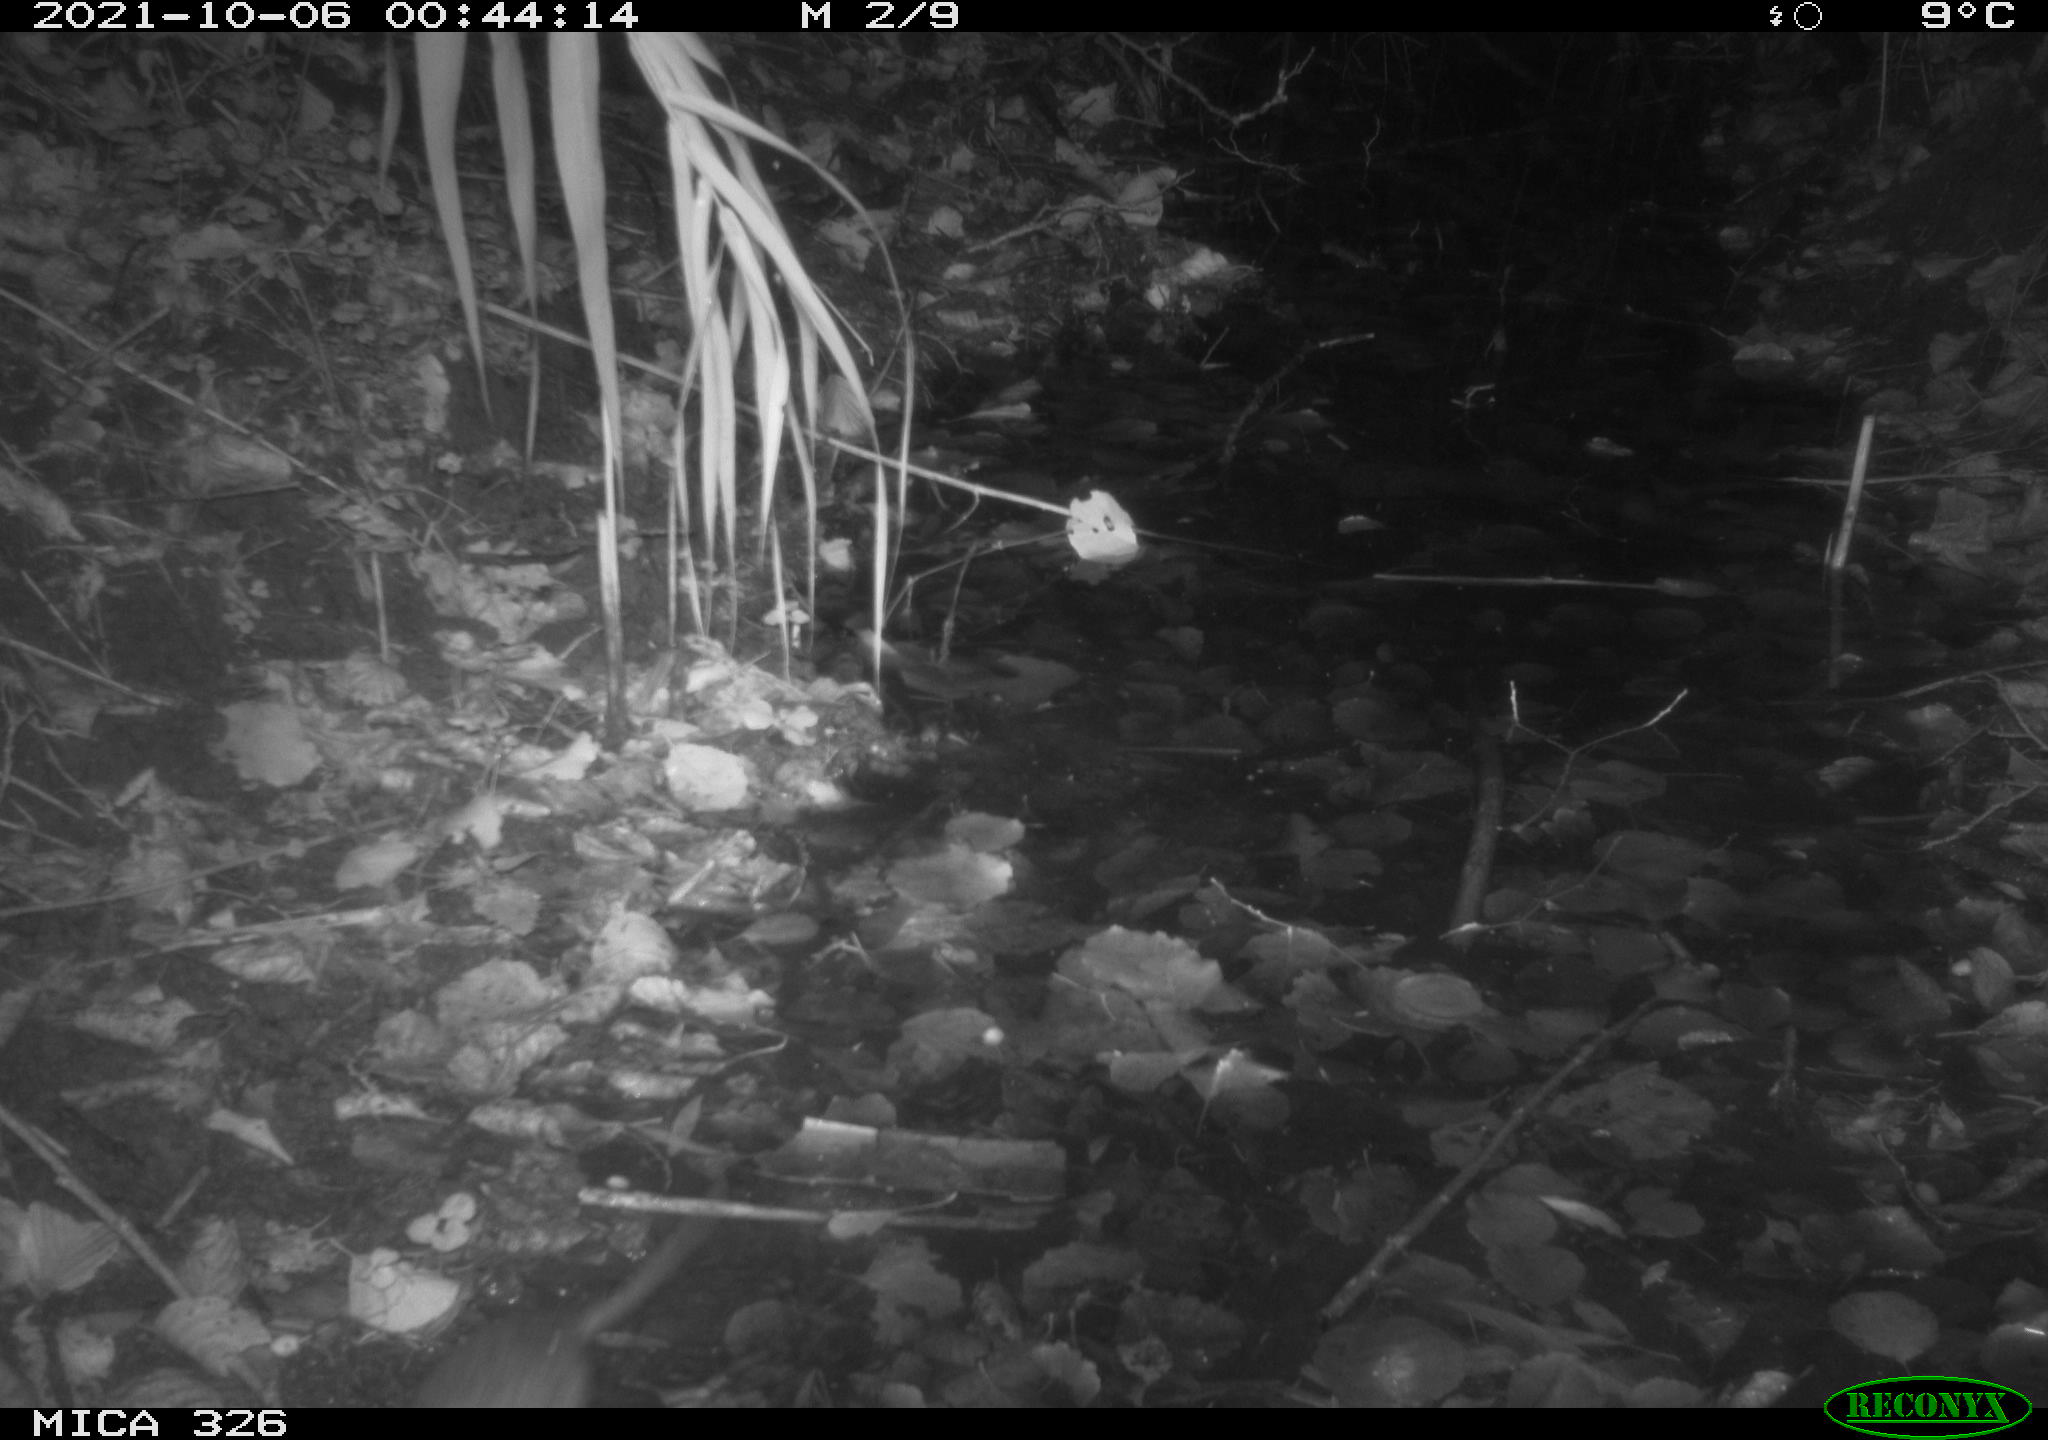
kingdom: Animalia
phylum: Chordata
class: Mammalia
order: Rodentia
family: Muridae
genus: Rattus
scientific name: Rattus norvegicus
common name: Brown rat
